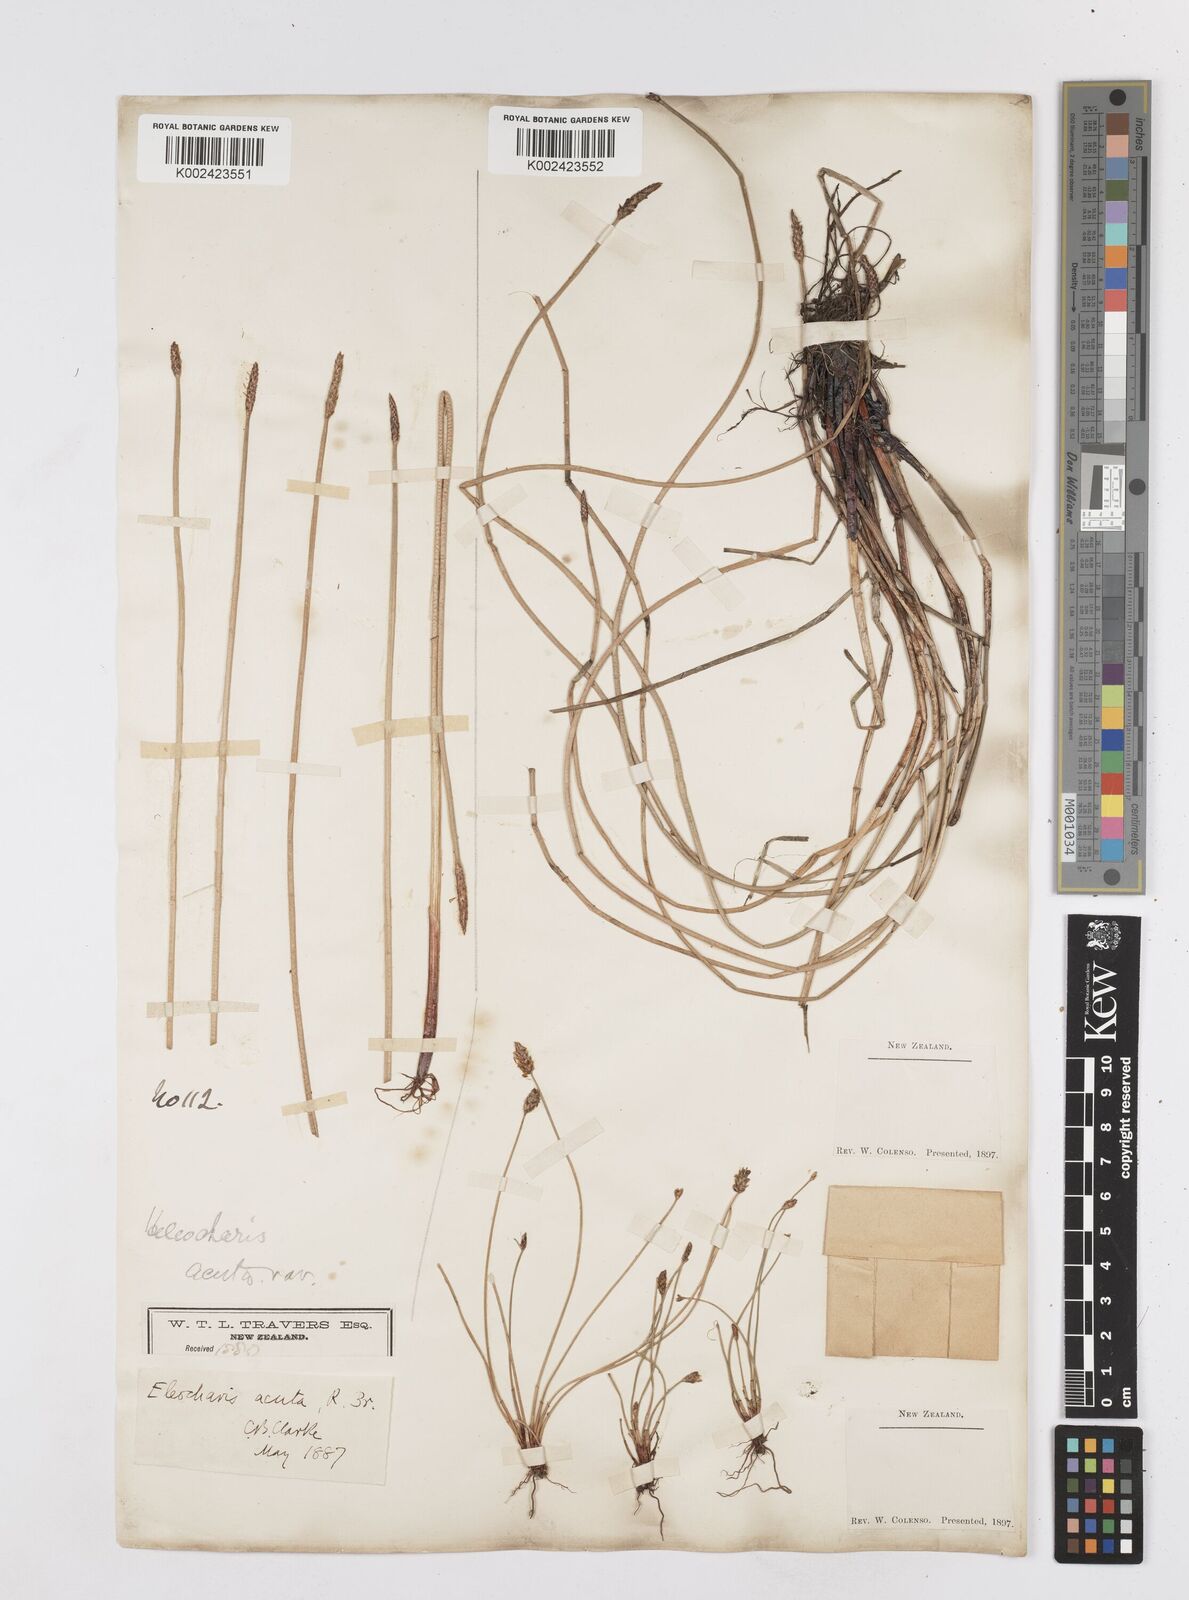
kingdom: Plantae
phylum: Tracheophyta
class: Liliopsida
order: Poales
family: Cyperaceae
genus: Eleocharis
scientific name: Eleocharis acuta
